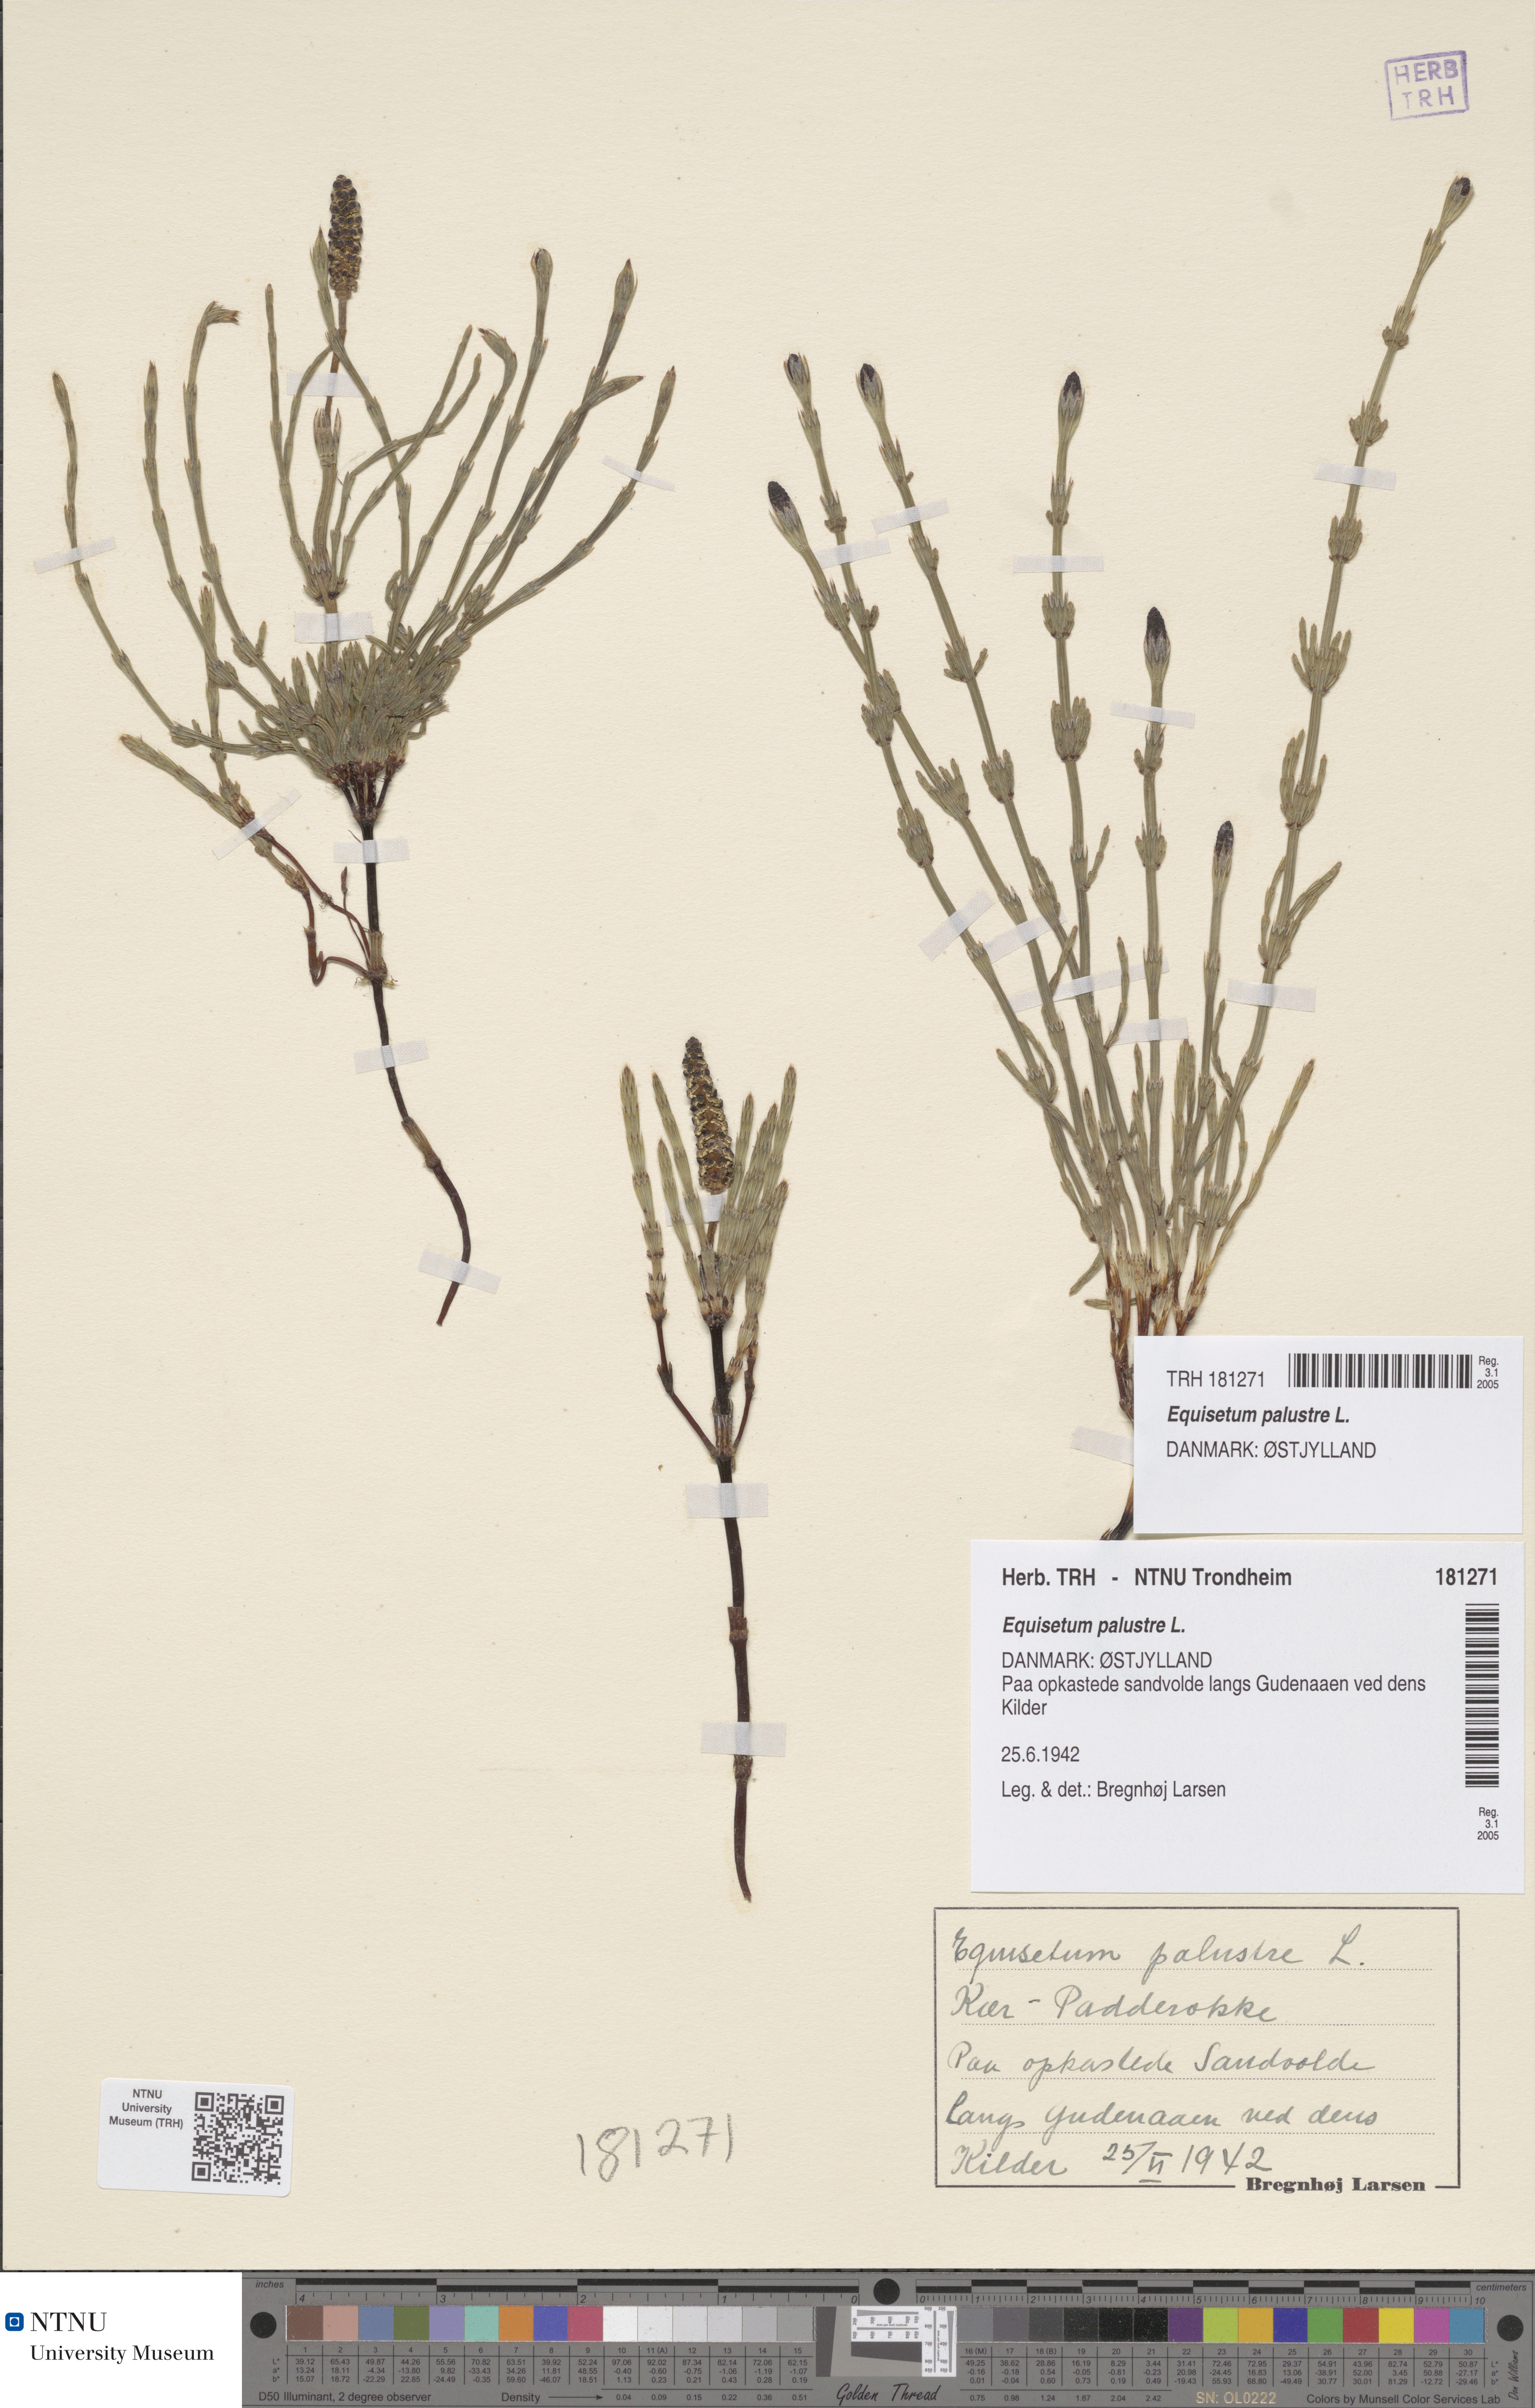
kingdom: Plantae
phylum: Tracheophyta
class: Polypodiopsida
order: Equisetales
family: Equisetaceae
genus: Equisetum
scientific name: Equisetum palustre
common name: Marsh horsetail
